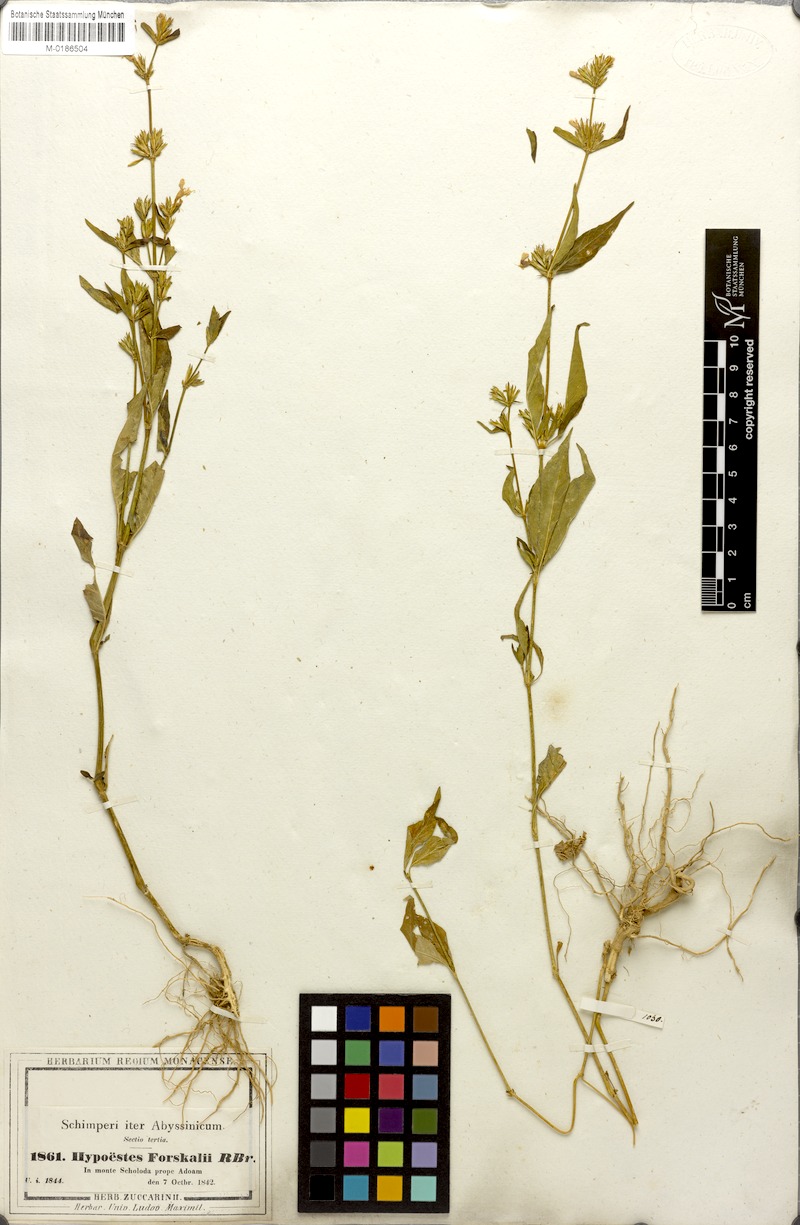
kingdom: Plantae
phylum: Tracheophyta
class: Magnoliopsida
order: Lamiales
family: Acanthaceae
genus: Hypoestes
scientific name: Hypoestes aristata
